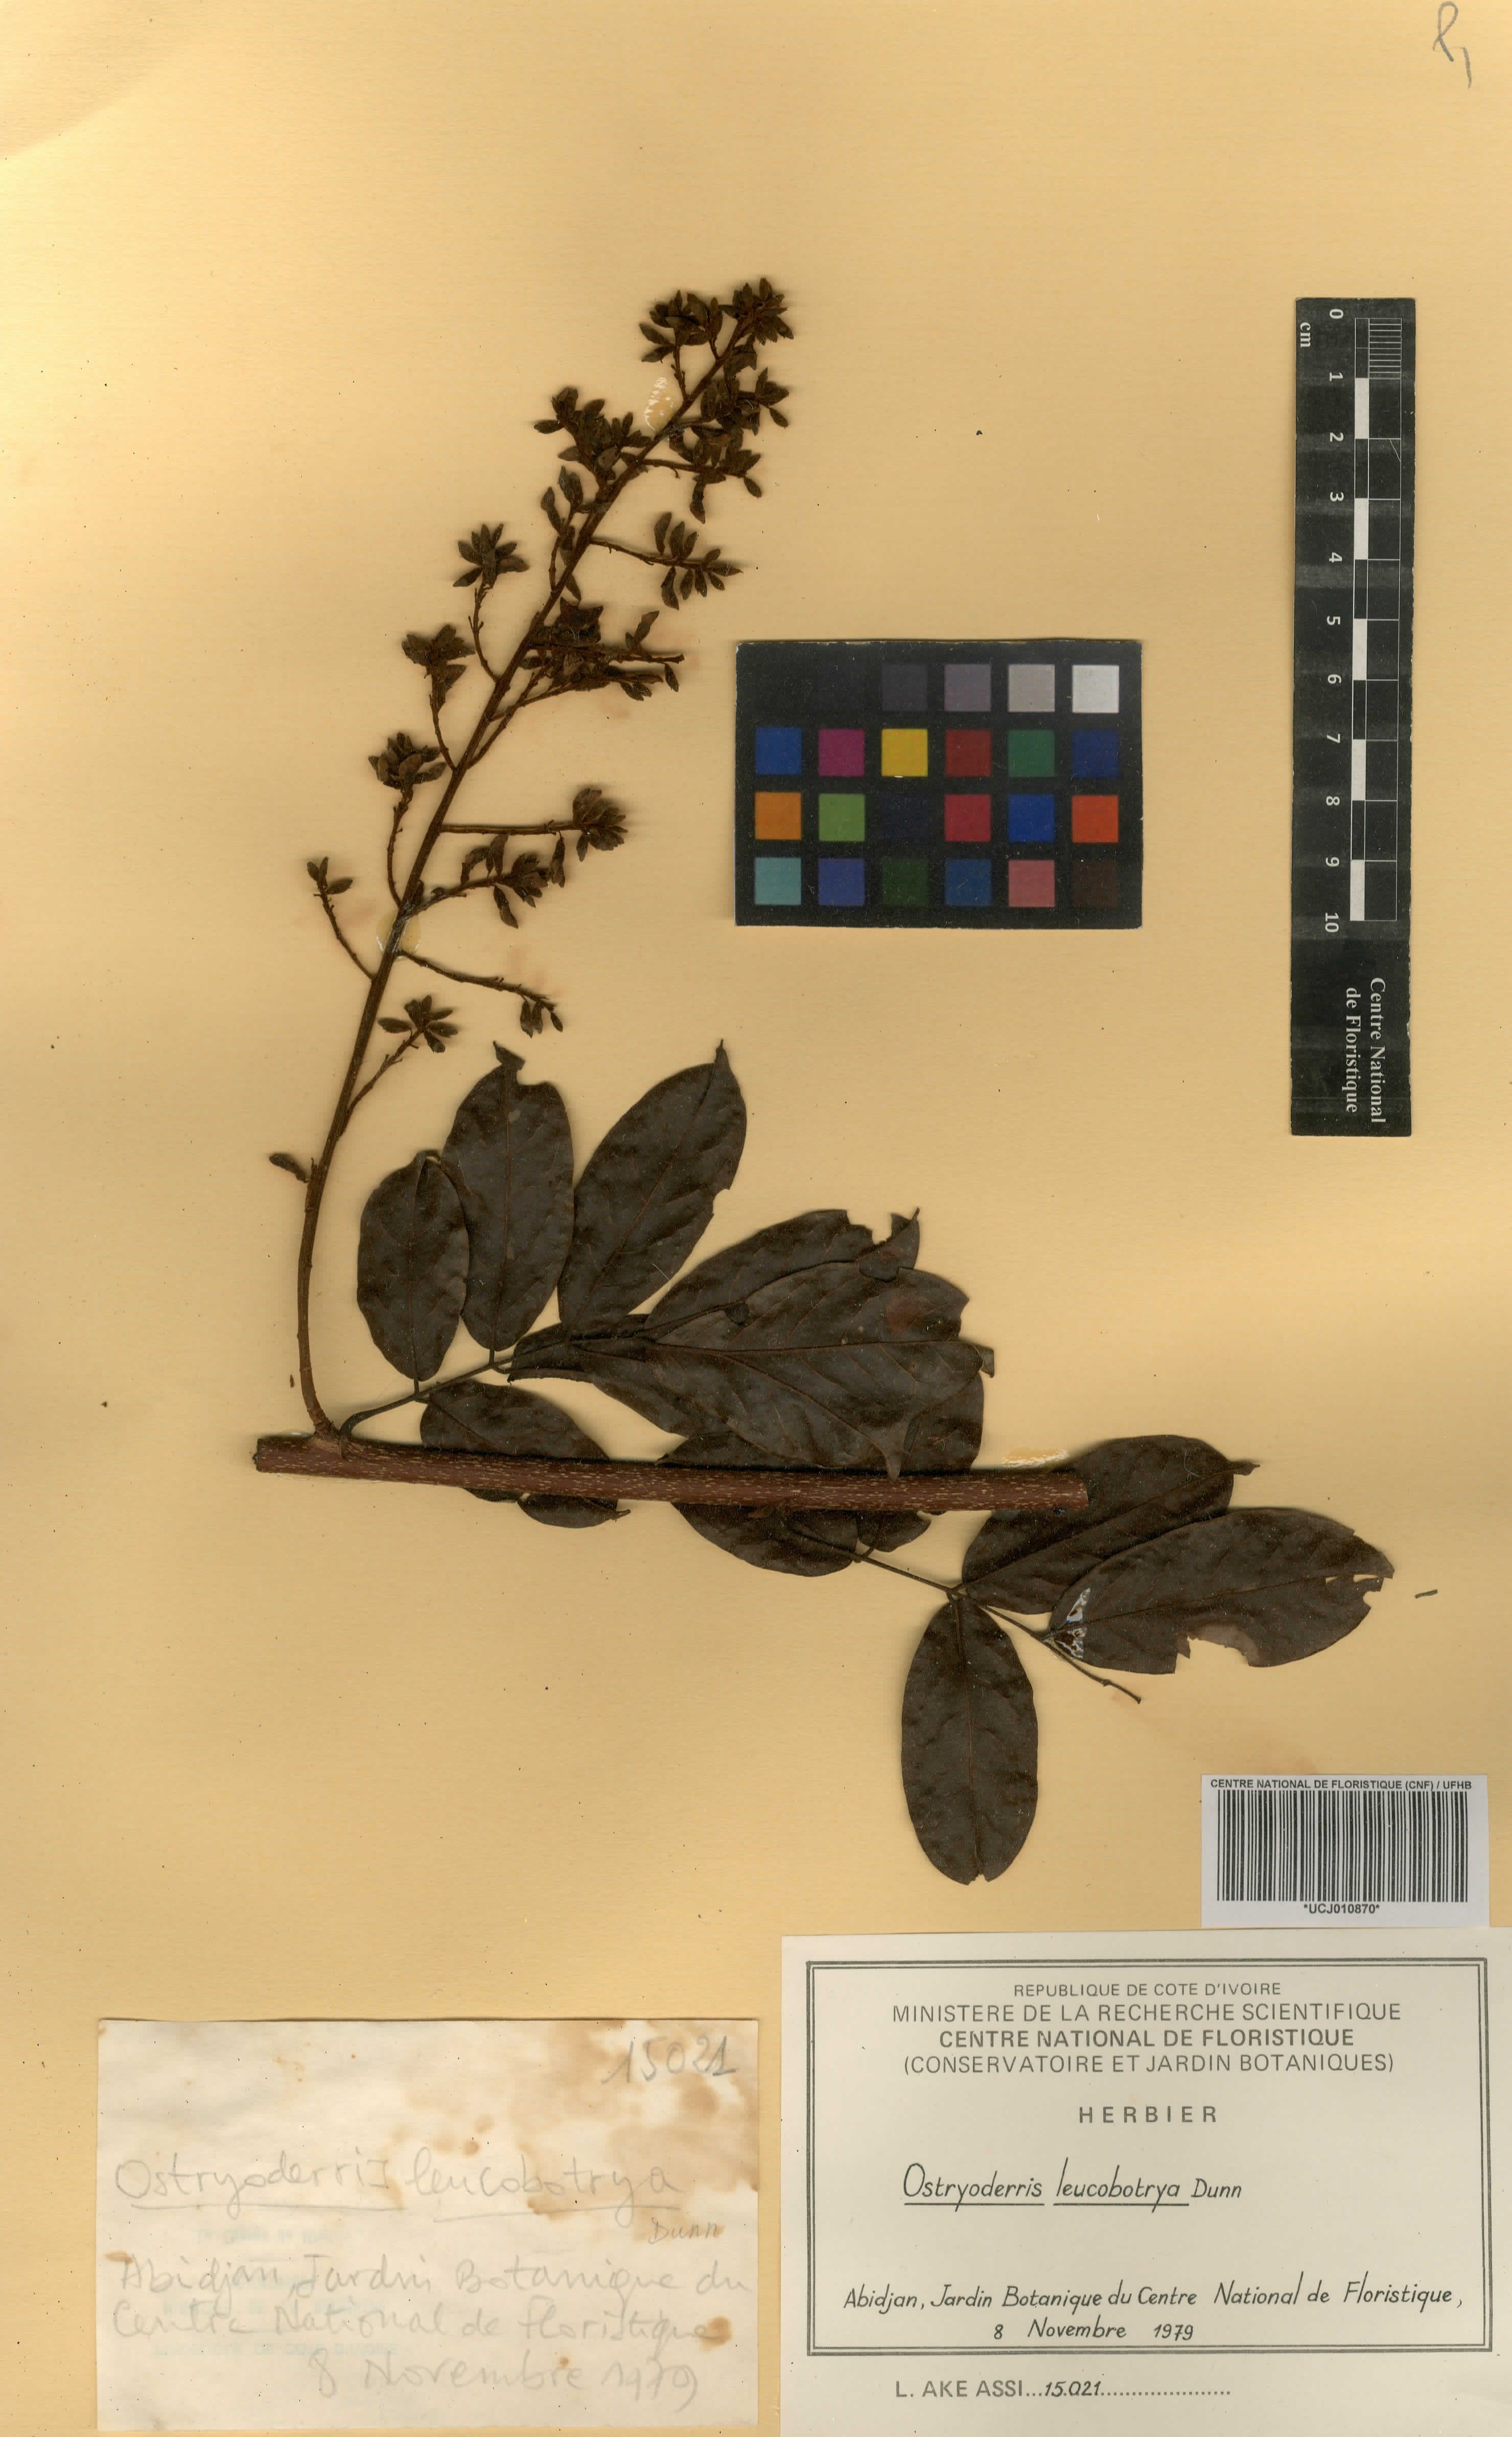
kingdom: Plantae
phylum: Tracheophyta
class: Magnoliopsida
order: Fabales
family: Fabaceae
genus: Aganope
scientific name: Aganope leucobotrya
